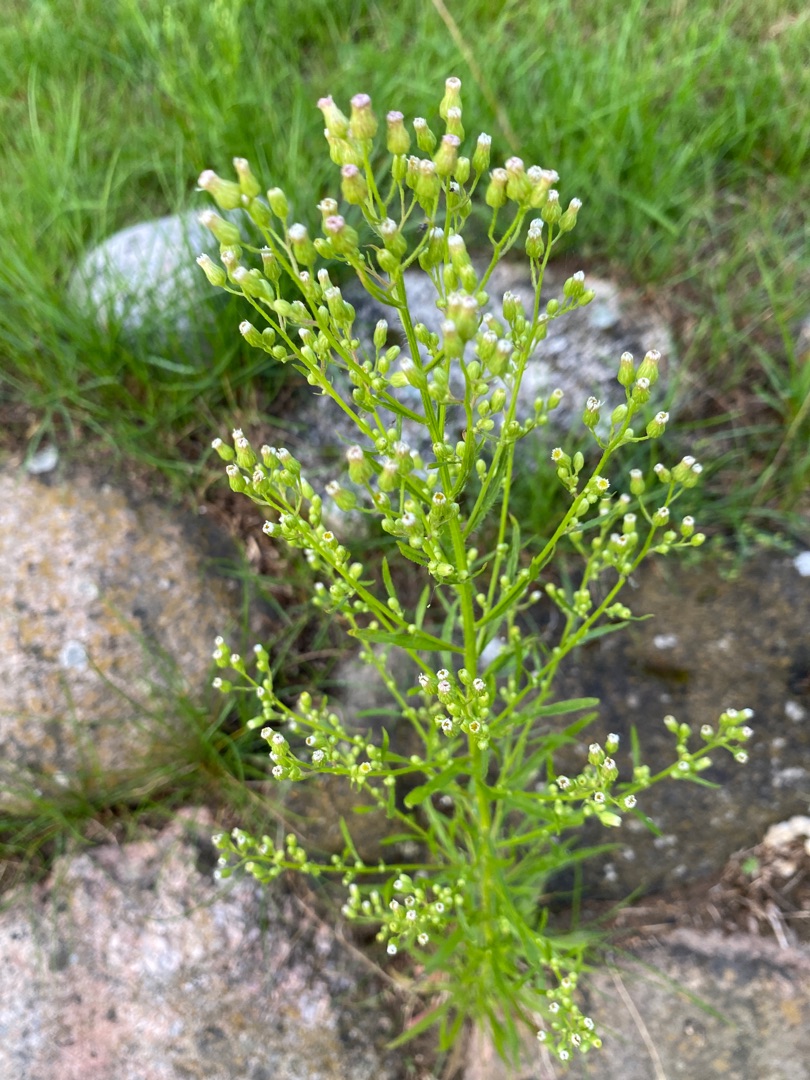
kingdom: Plantae
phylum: Tracheophyta
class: Magnoliopsida
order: Asterales
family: Asteraceae
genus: Erigeron
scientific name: Erigeron canadensis
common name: Kanadisk bakkestjerne
